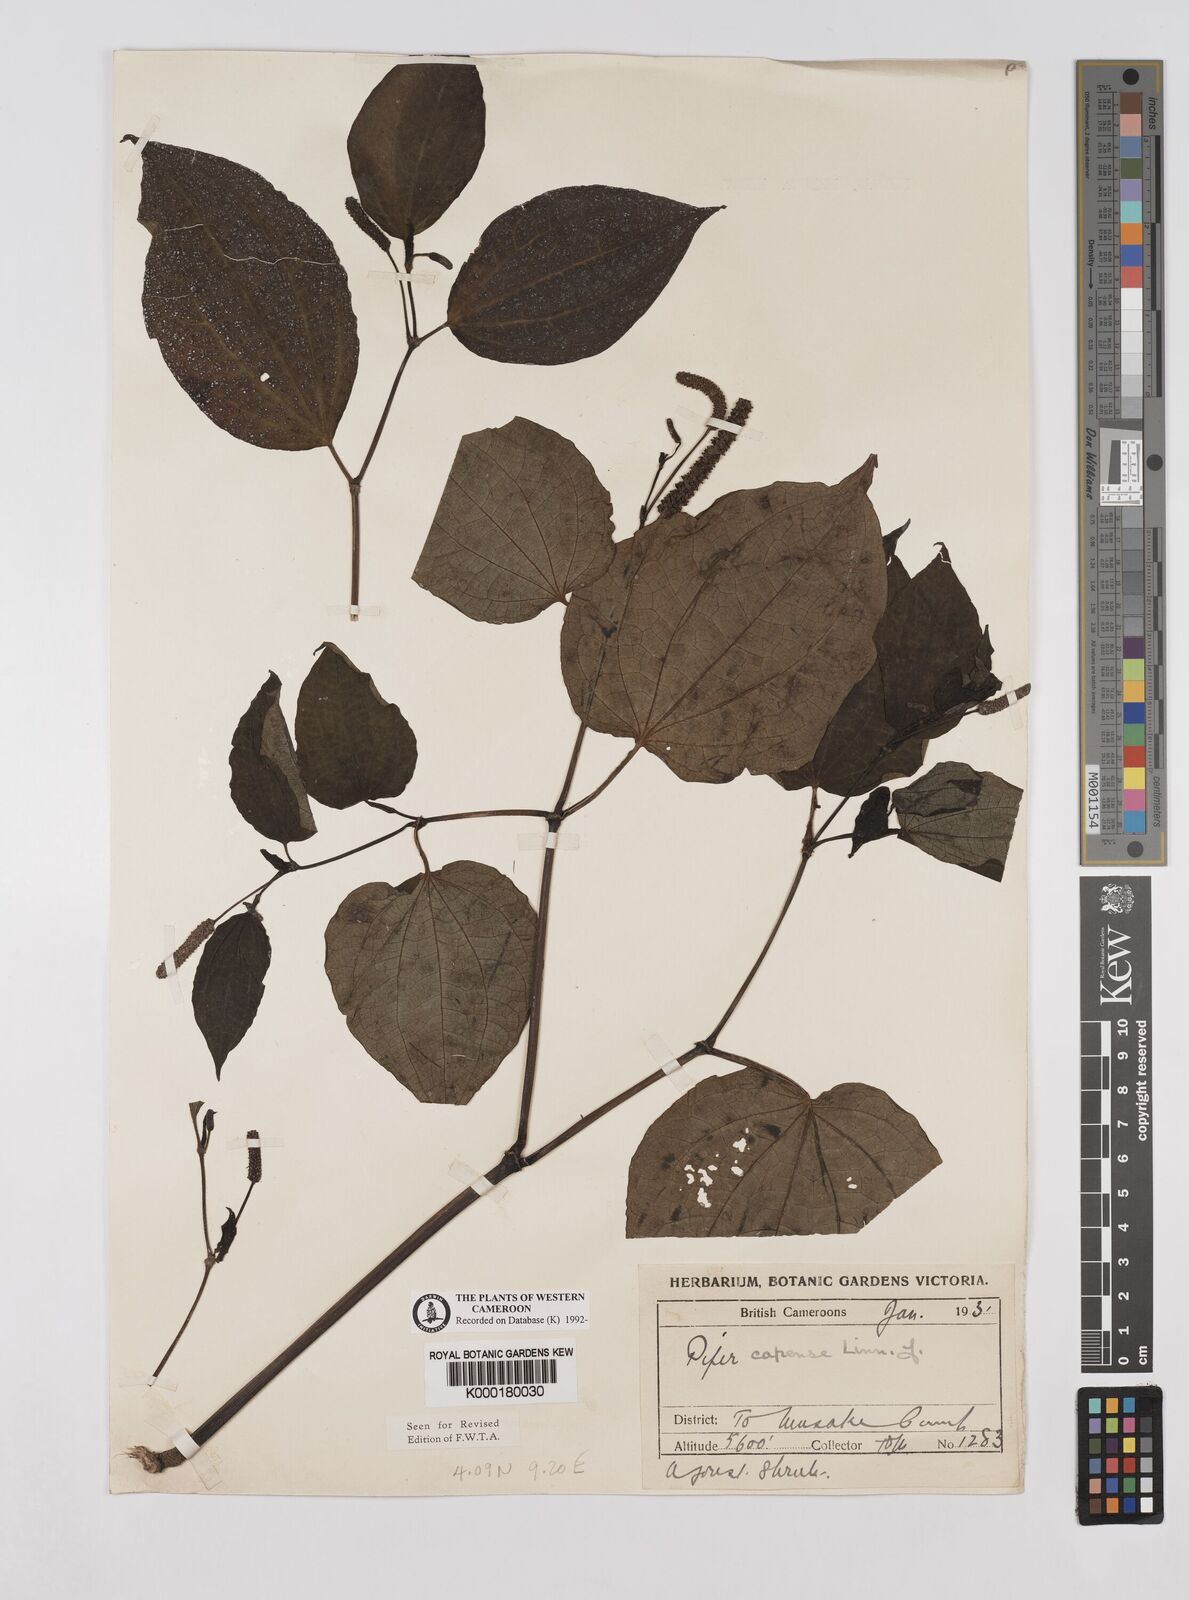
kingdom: Plantae
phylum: Tracheophyta
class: Magnoliopsida
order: Piperales
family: Piperaceae
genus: Piper
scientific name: Piper capense
